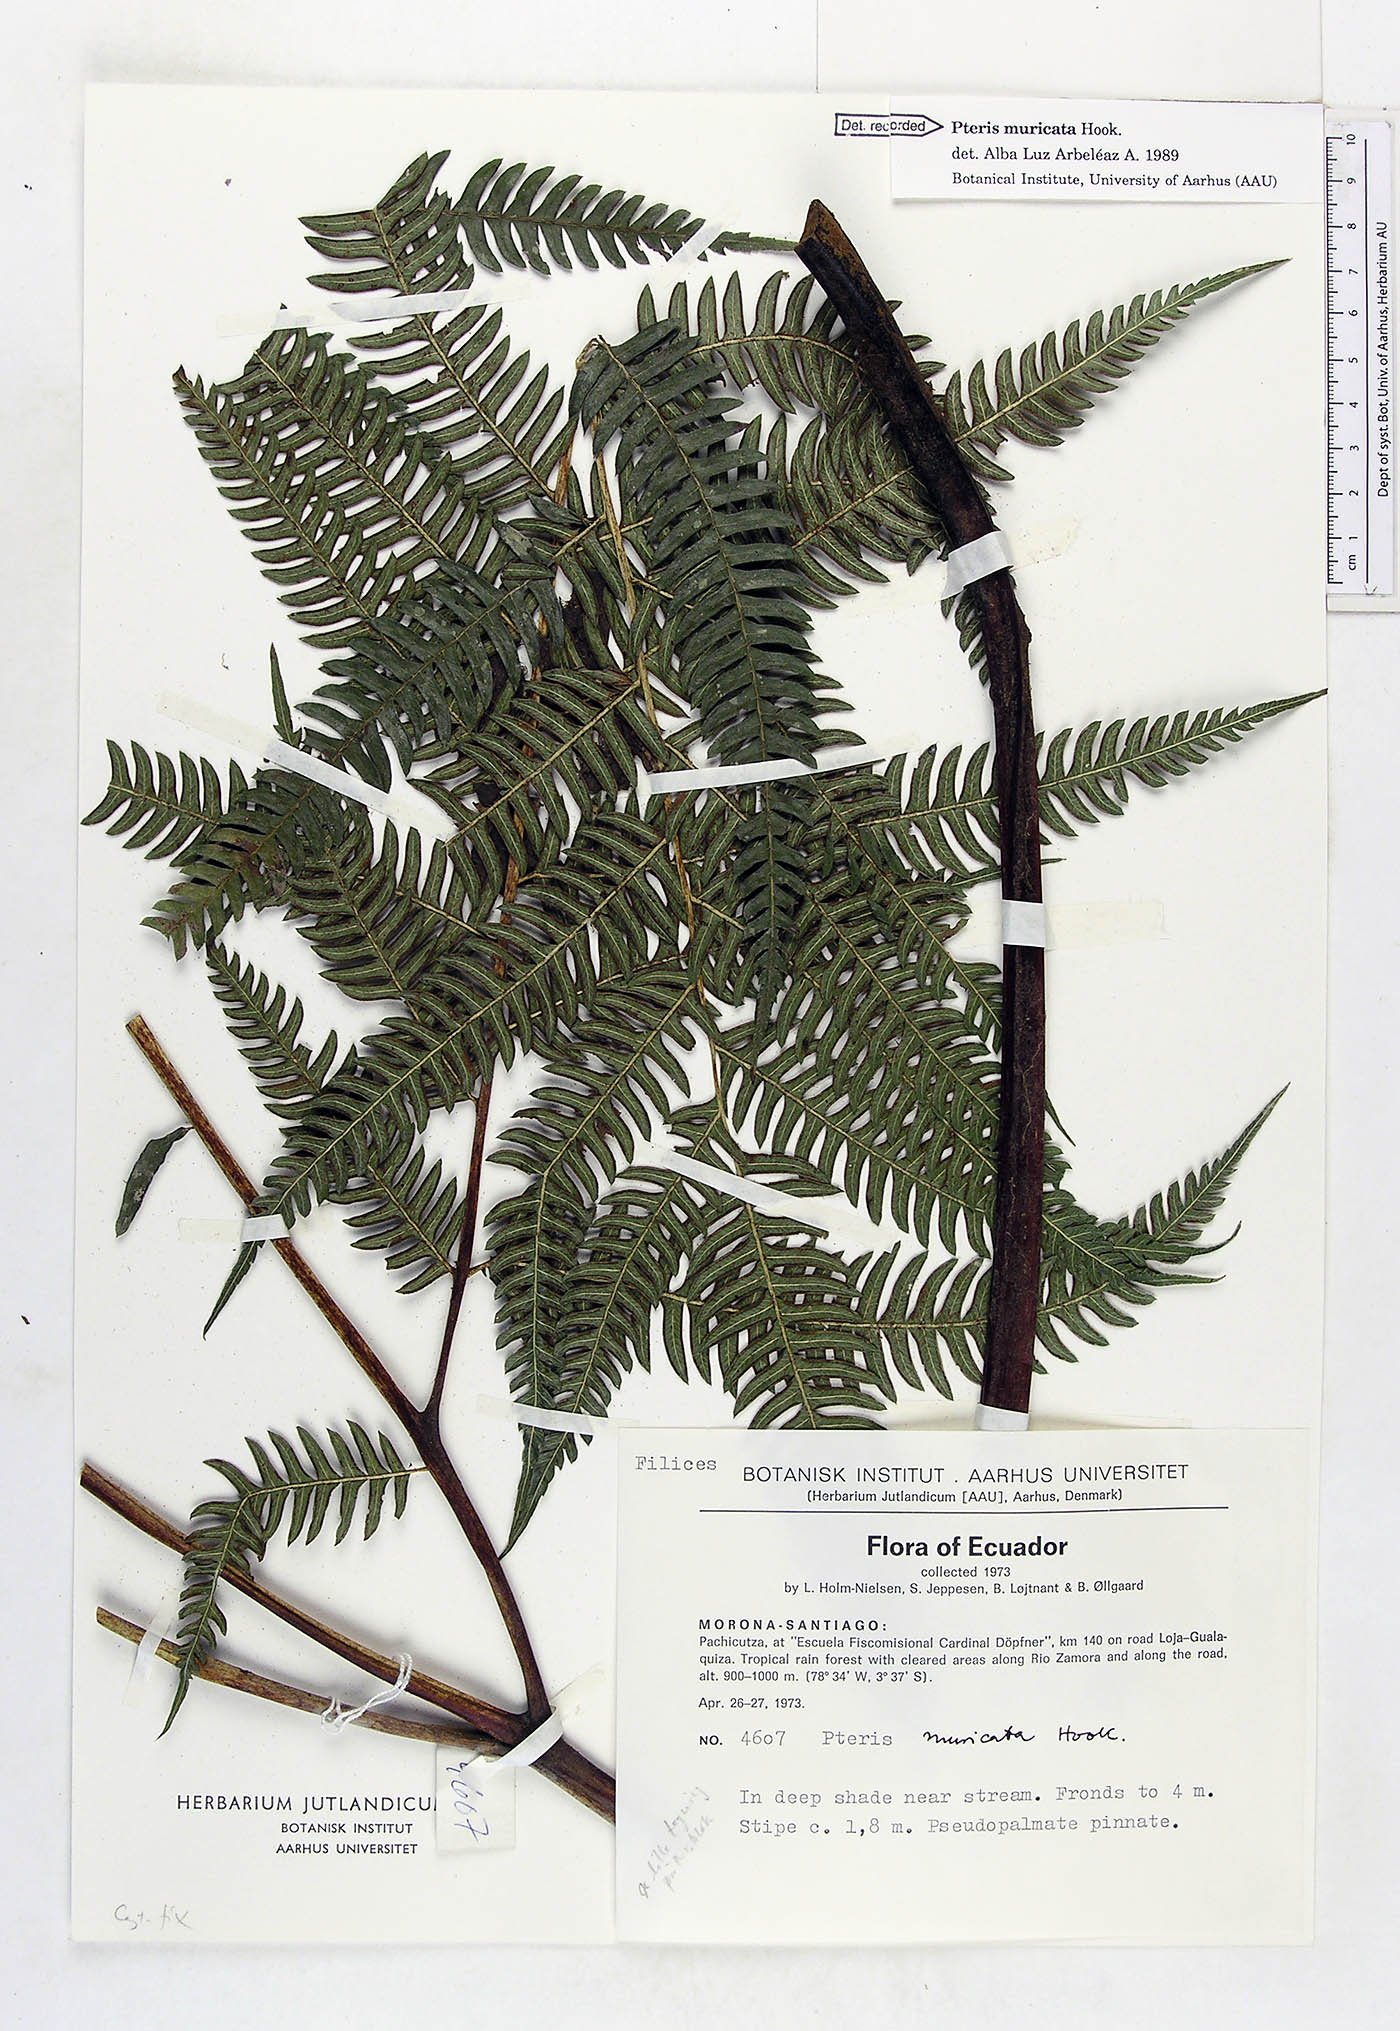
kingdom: Plantae
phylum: Tracheophyta
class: Polypodiopsida
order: Polypodiales
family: Pteridaceae
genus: Pteris
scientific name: Pteris muricata
